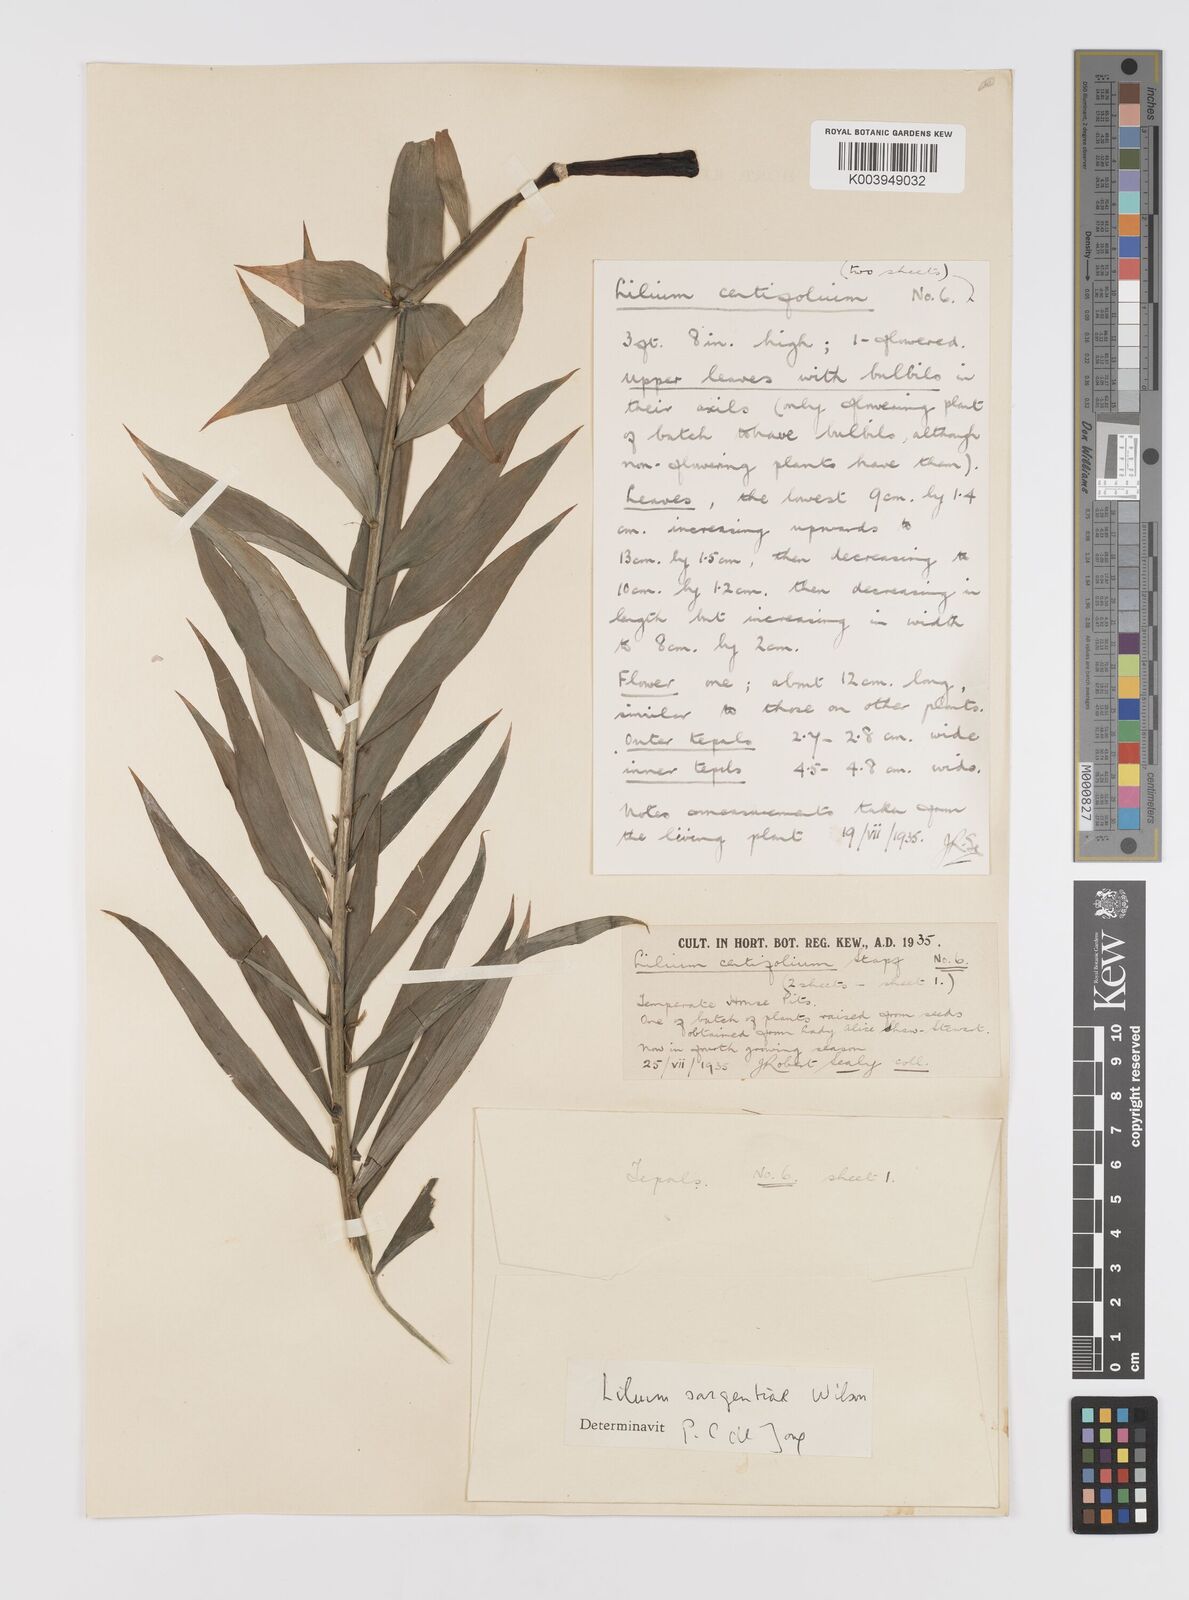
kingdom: Plantae
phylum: Tracheophyta
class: Liliopsida
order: Liliales
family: Liliaceae
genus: Lilium
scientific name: Lilium sargentiae
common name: Sargent lily
